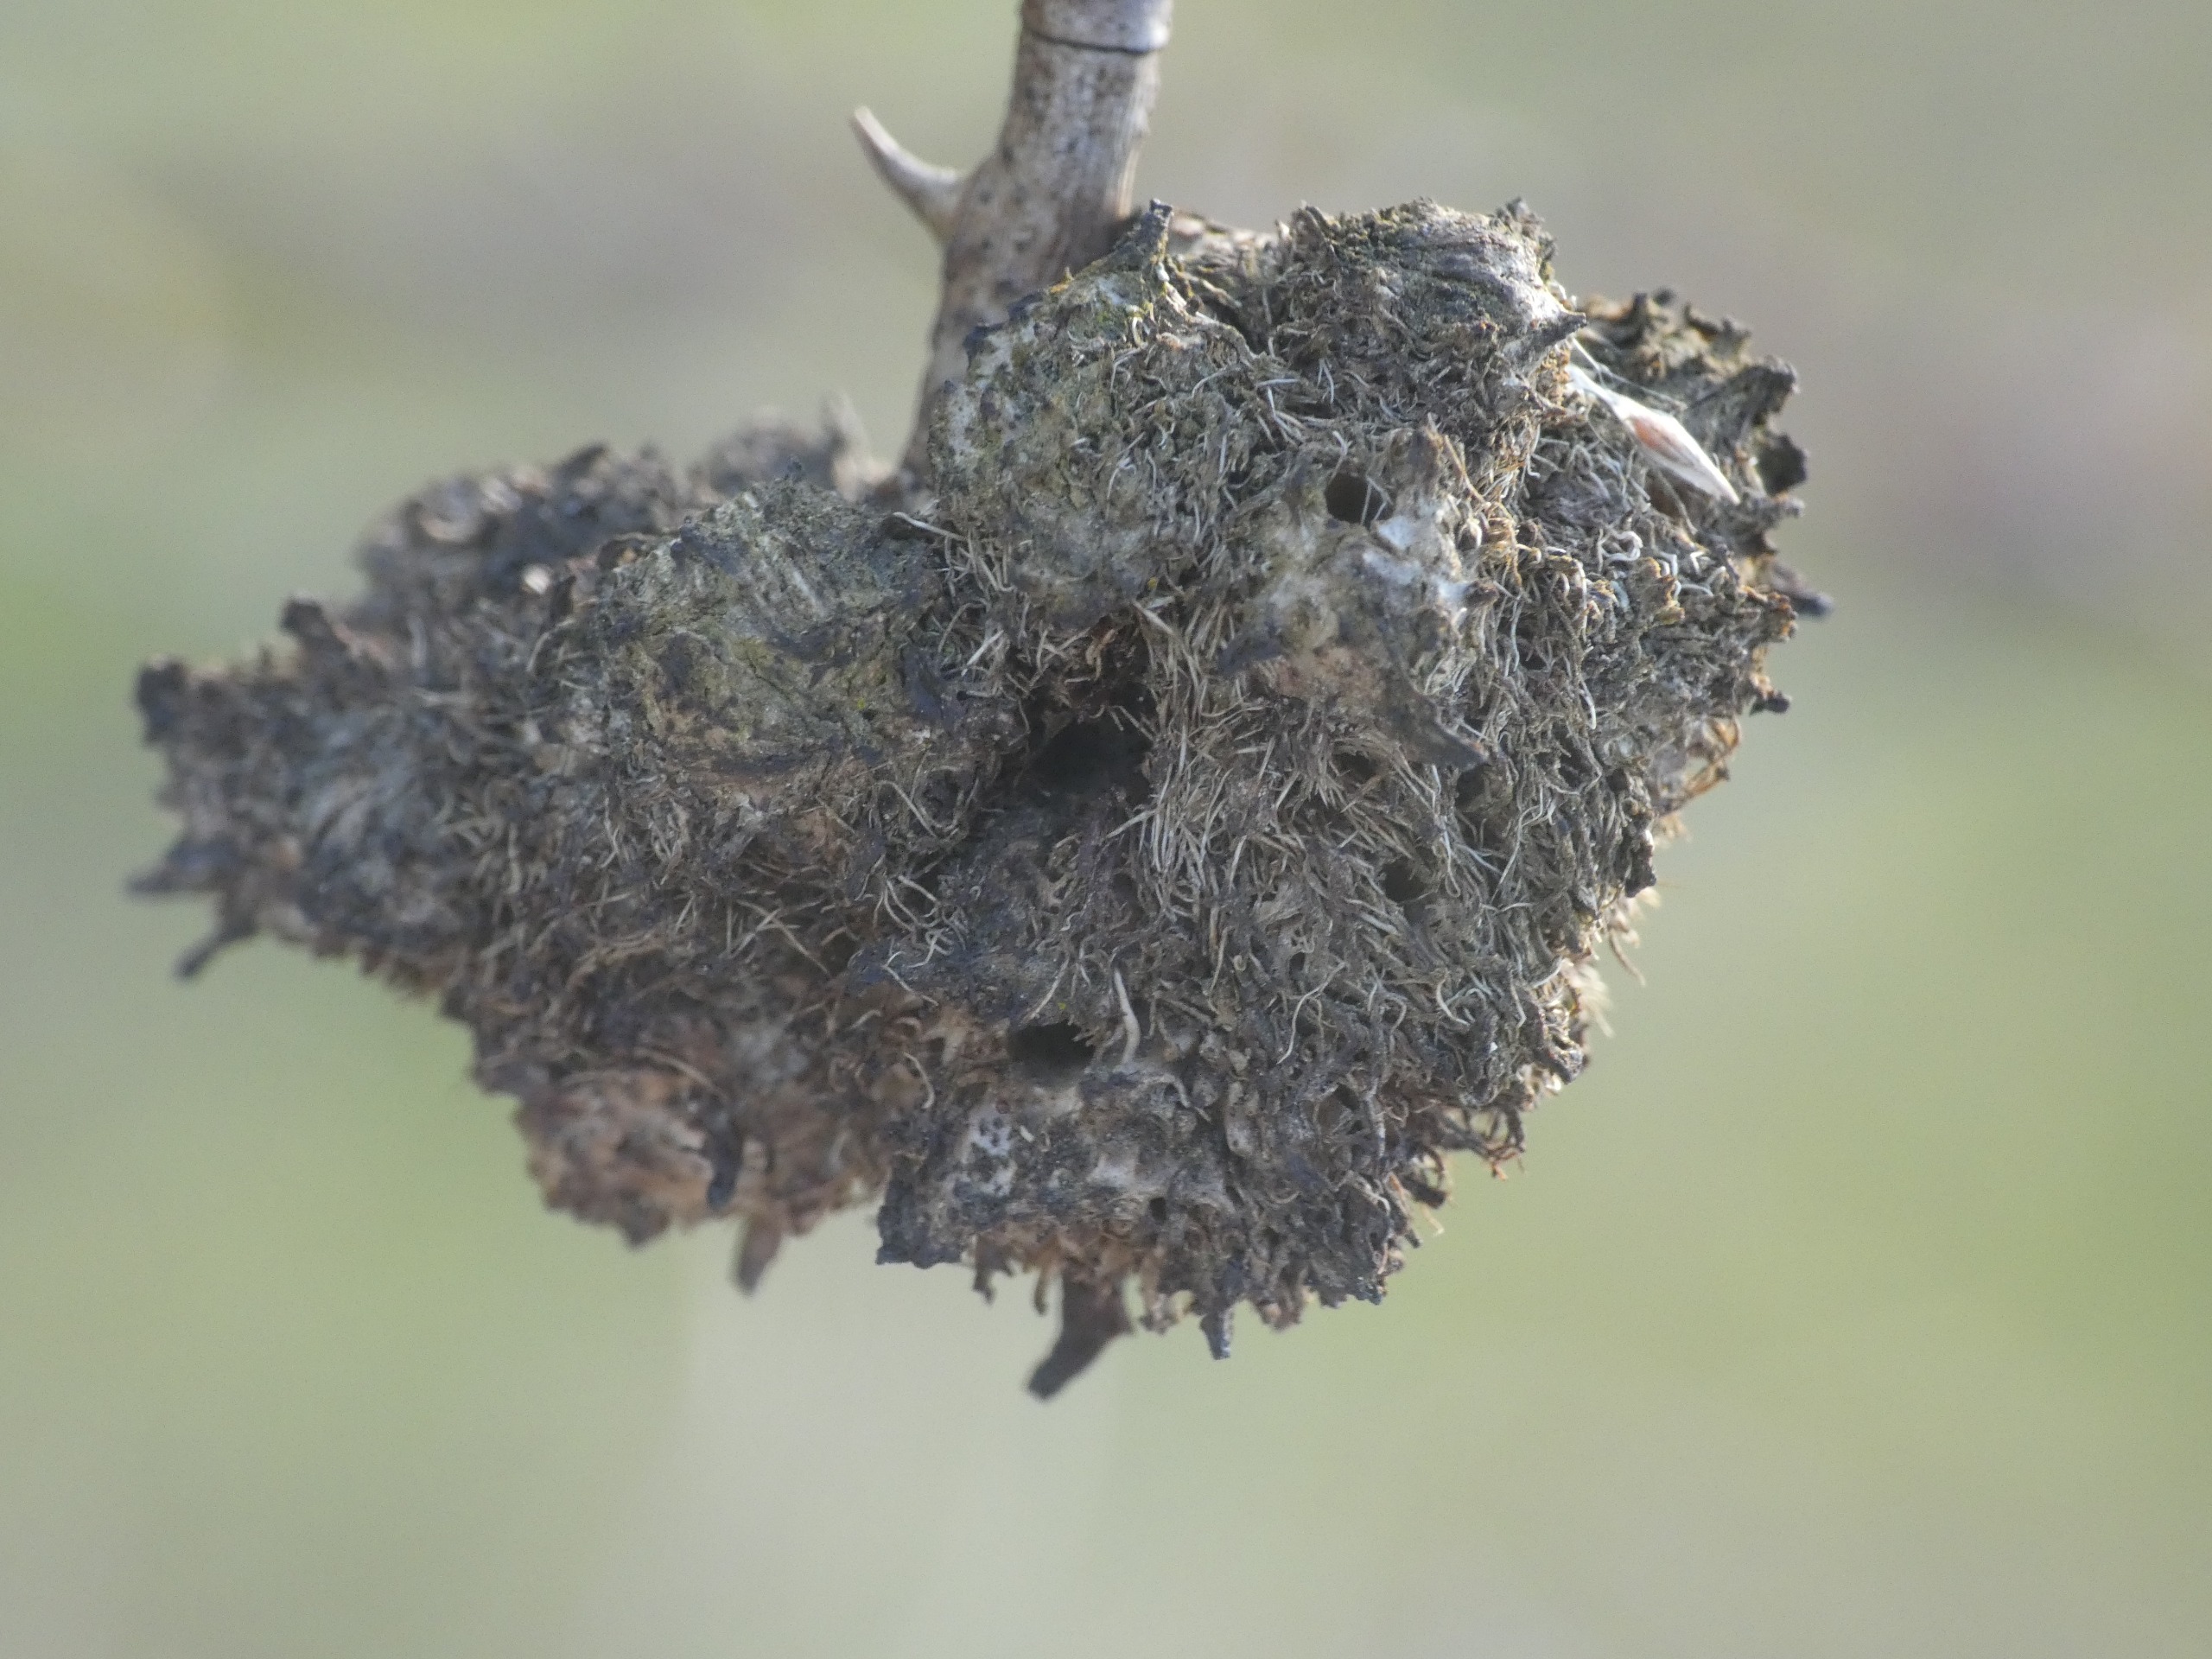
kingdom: Animalia
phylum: Arthropoda
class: Insecta
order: Hymenoptera
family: Cynipidae
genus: Diplolepis
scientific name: Diplolepis rosae
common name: Bedeguargalhveps
